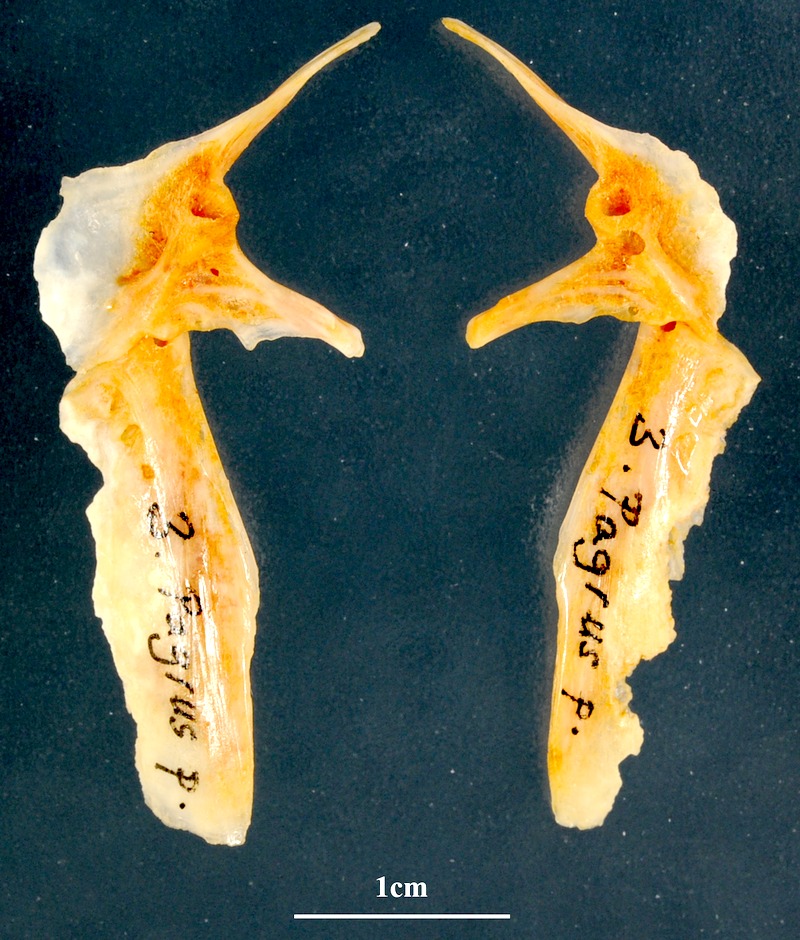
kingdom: Animalia
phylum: Chordata
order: Perciformes
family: Sparidae
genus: Pagrus
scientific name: Pagrus pagrus
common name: Red porgy
